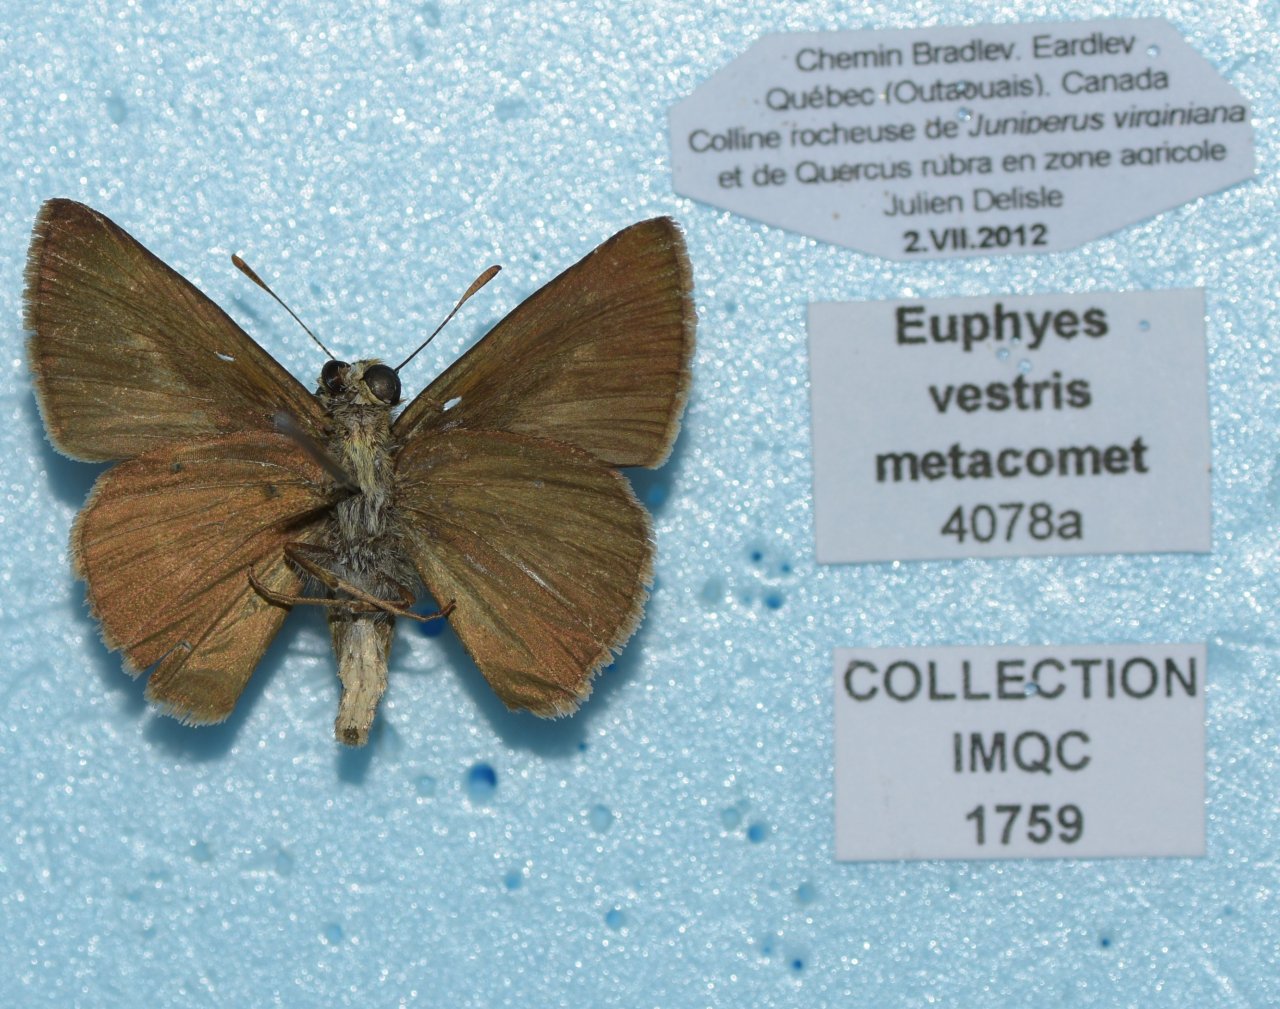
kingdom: Animalia
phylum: Arthropoda
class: Insecta
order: Lepidoptera
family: Hesperiidae
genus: Euphyes
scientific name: Euphyes vestris
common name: Dun Skipper
